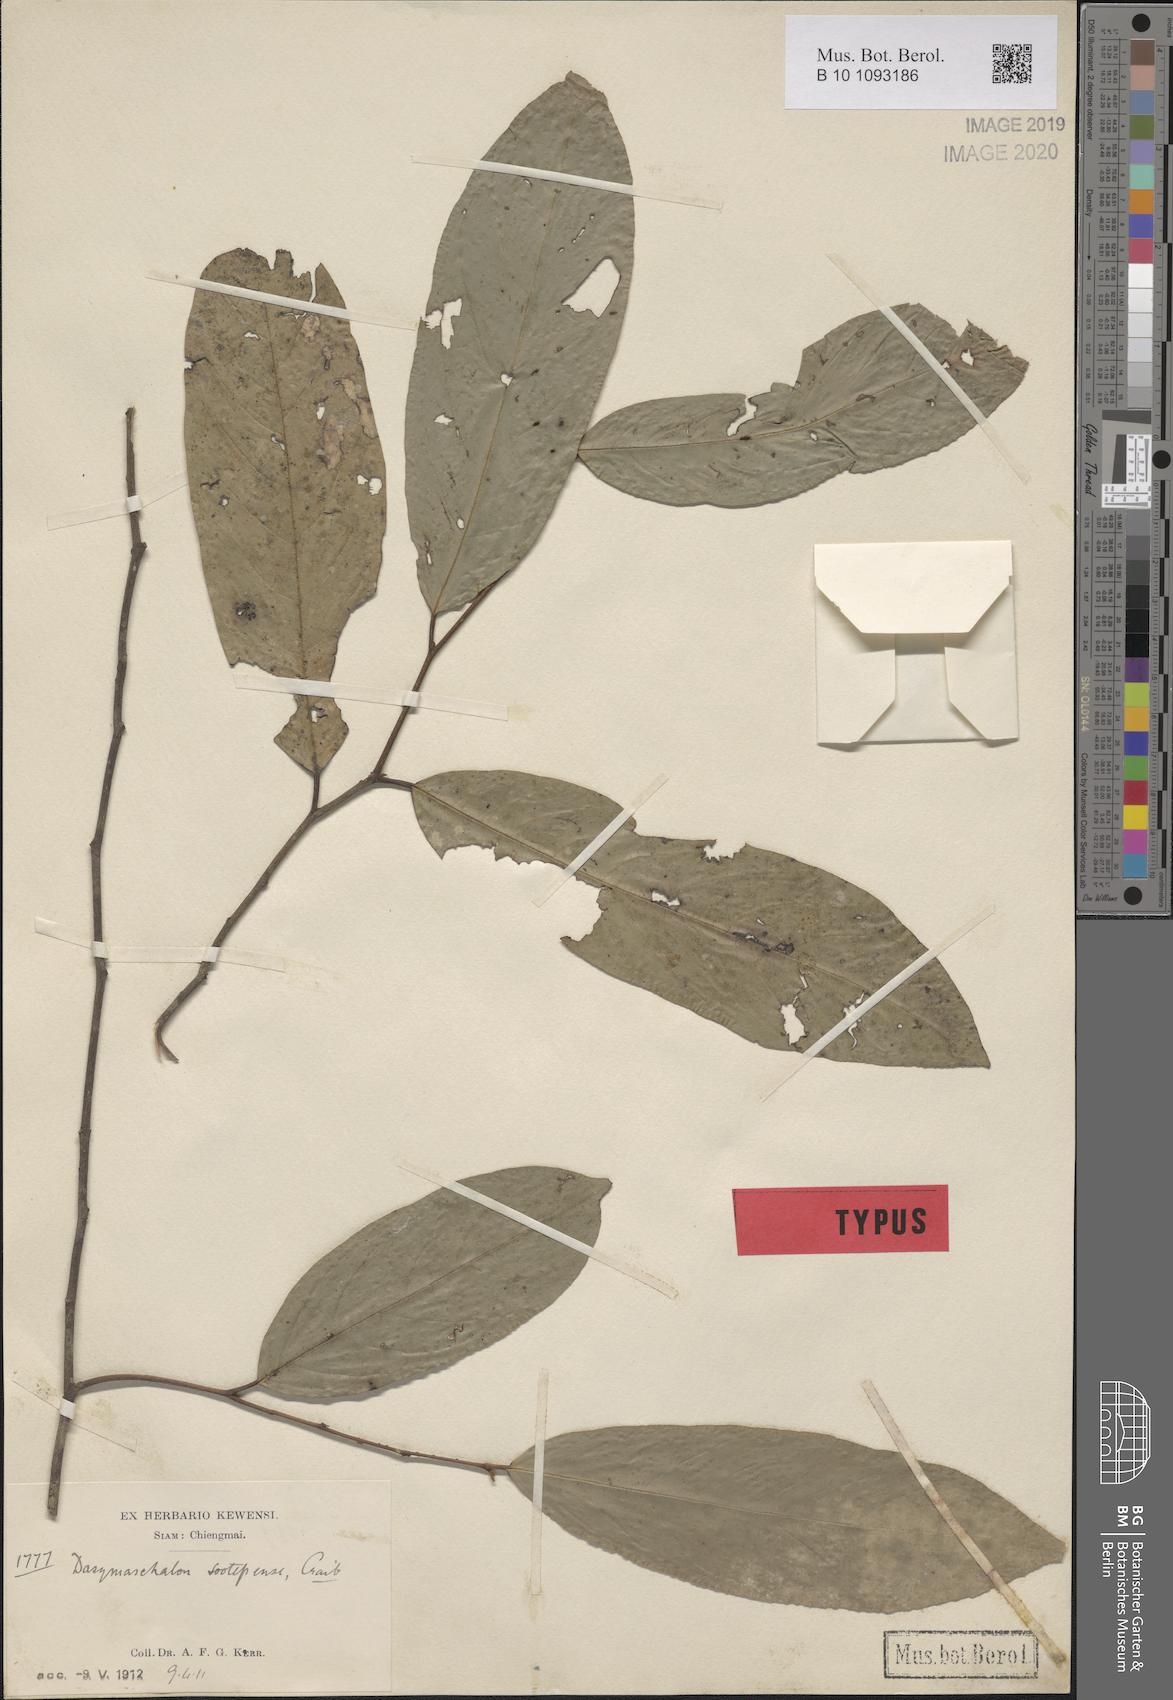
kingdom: Plantae
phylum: Tracheophyta
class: Magnoliopsida
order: Magnoliales
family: Annonaceae
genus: Dasymaschalon
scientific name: Dasymaschalon sootepense
